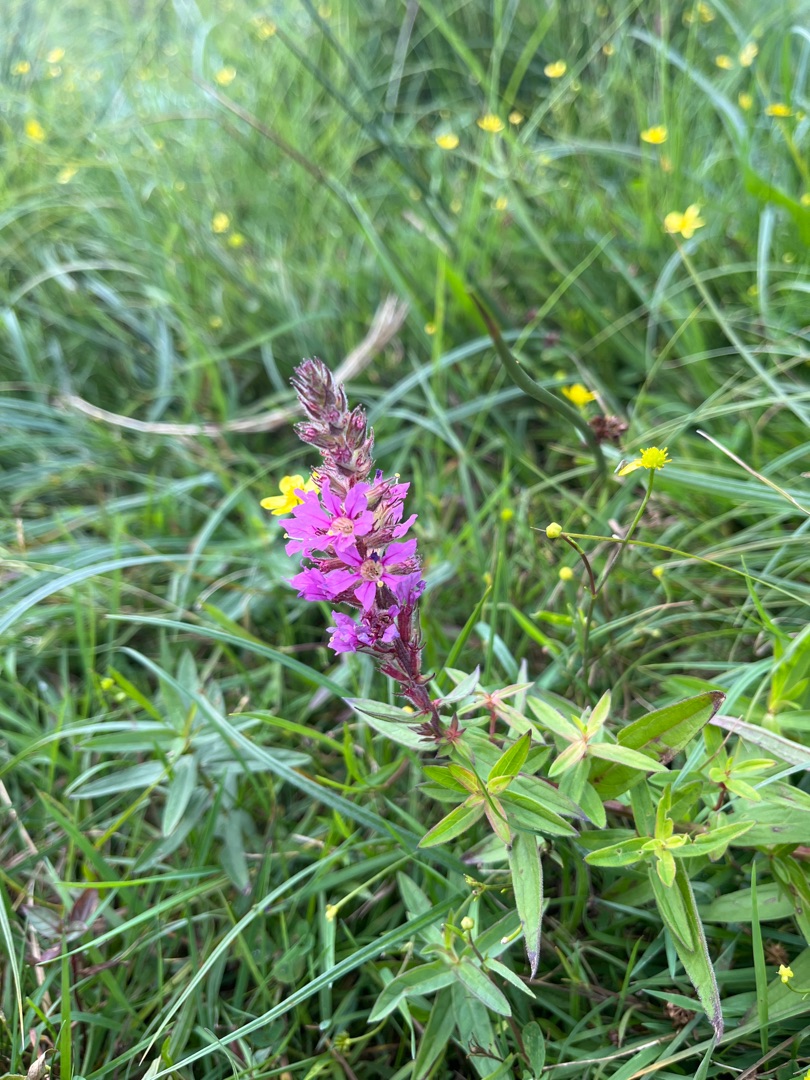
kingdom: Plantae
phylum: Tracheophyta
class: Magnoliopsida
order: Myrtales
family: Lythraceae
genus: Lythrum
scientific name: Lythrum salicaria
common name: Kattehale
